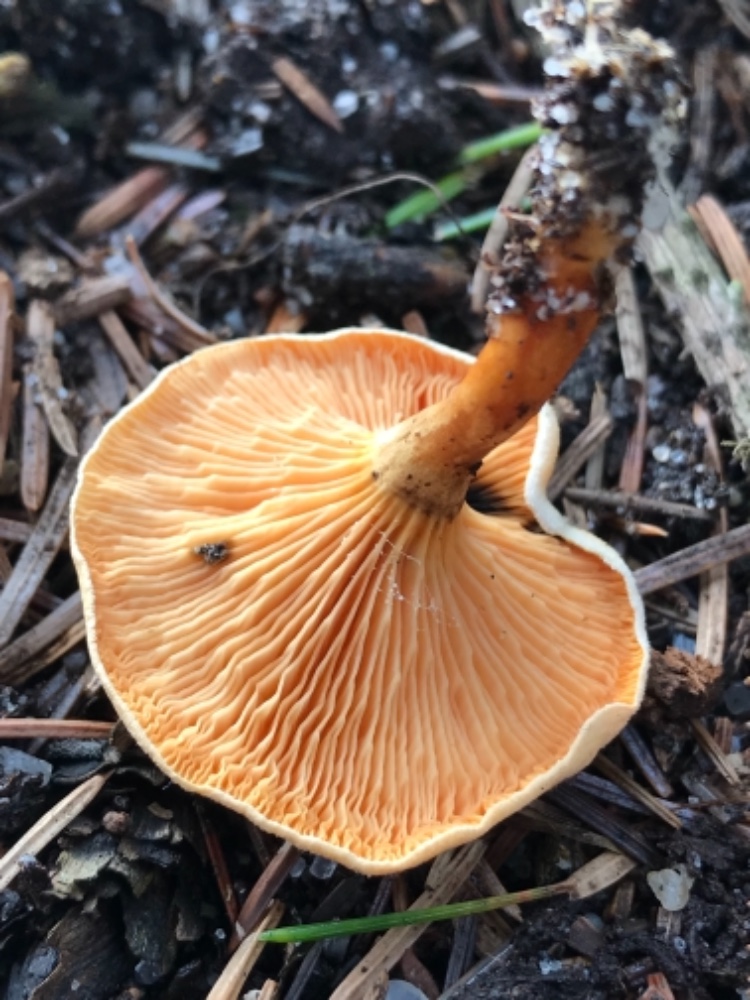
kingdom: Fungi
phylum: Basidiomycota
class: Agaricomycetes
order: Boletales
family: Hygrophoropsidaceae
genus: Hygrophoropsis
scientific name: Hygrophoropsis aurantiaca
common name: almindelig orangekantarel
